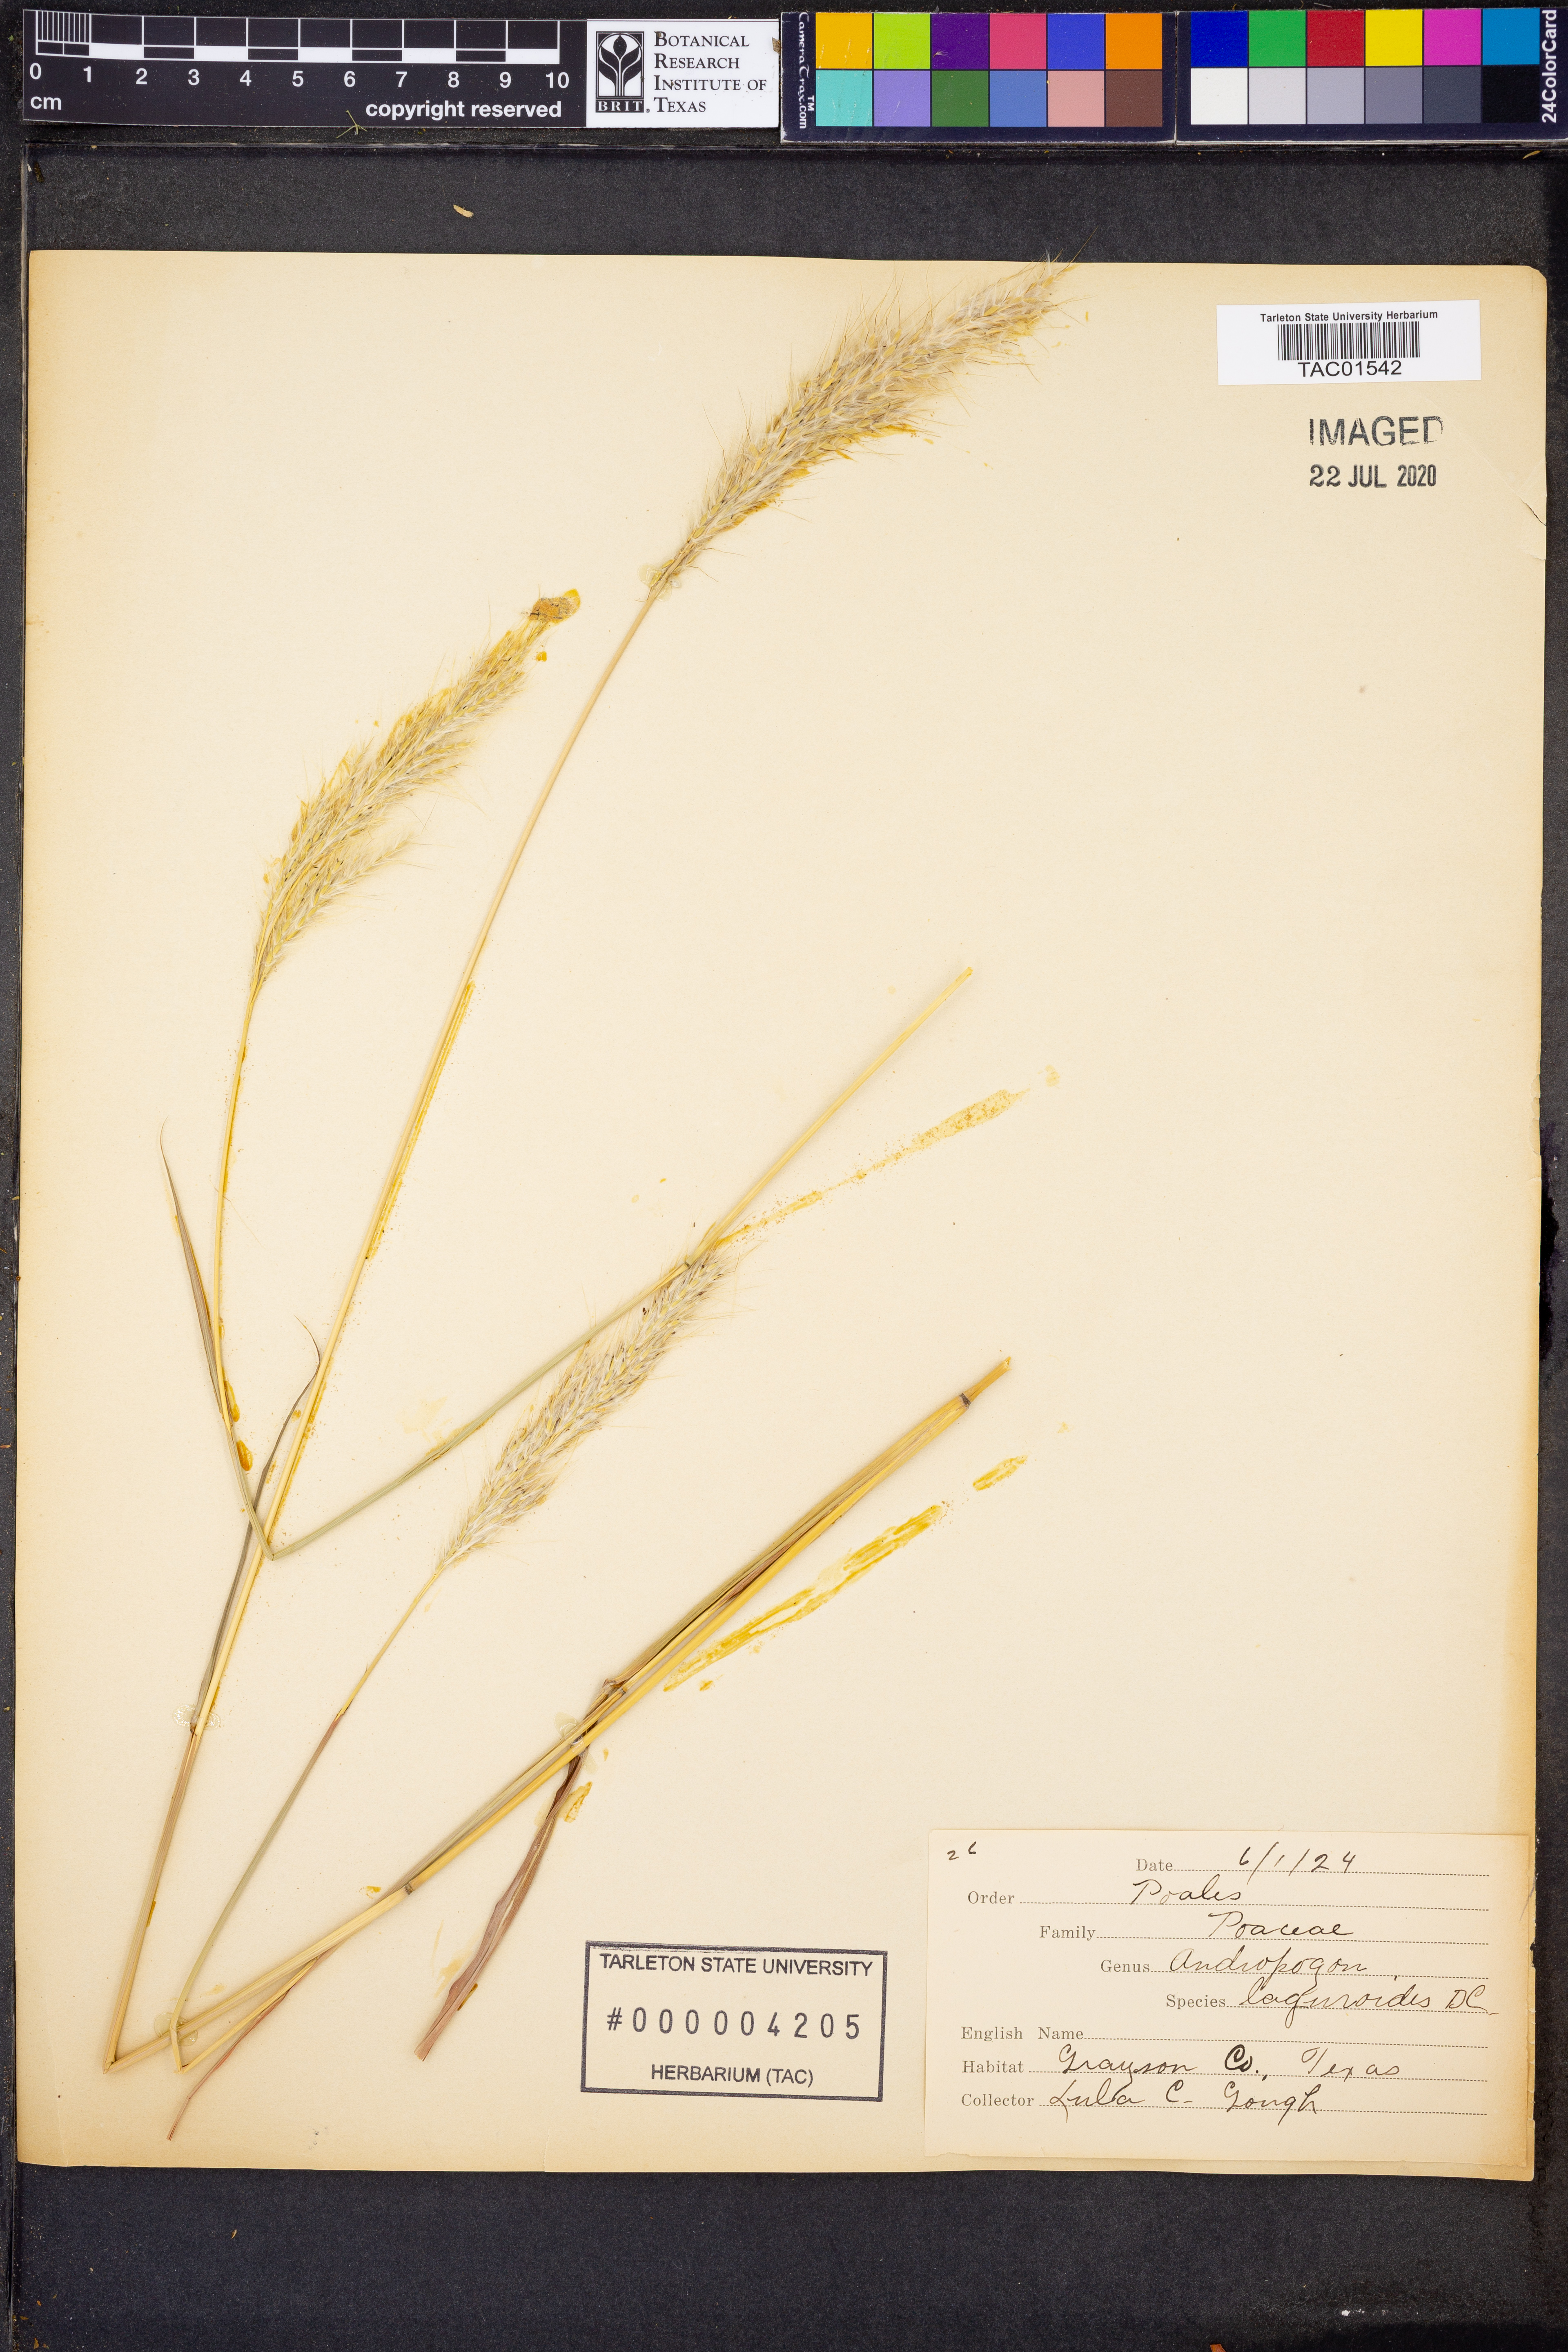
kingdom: Plantae
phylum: Tracheophyta
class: Liliopsida
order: Poales
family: Poaceae
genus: Bothriochloa
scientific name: Bothriochloa laguroides
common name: Silver bluestem
